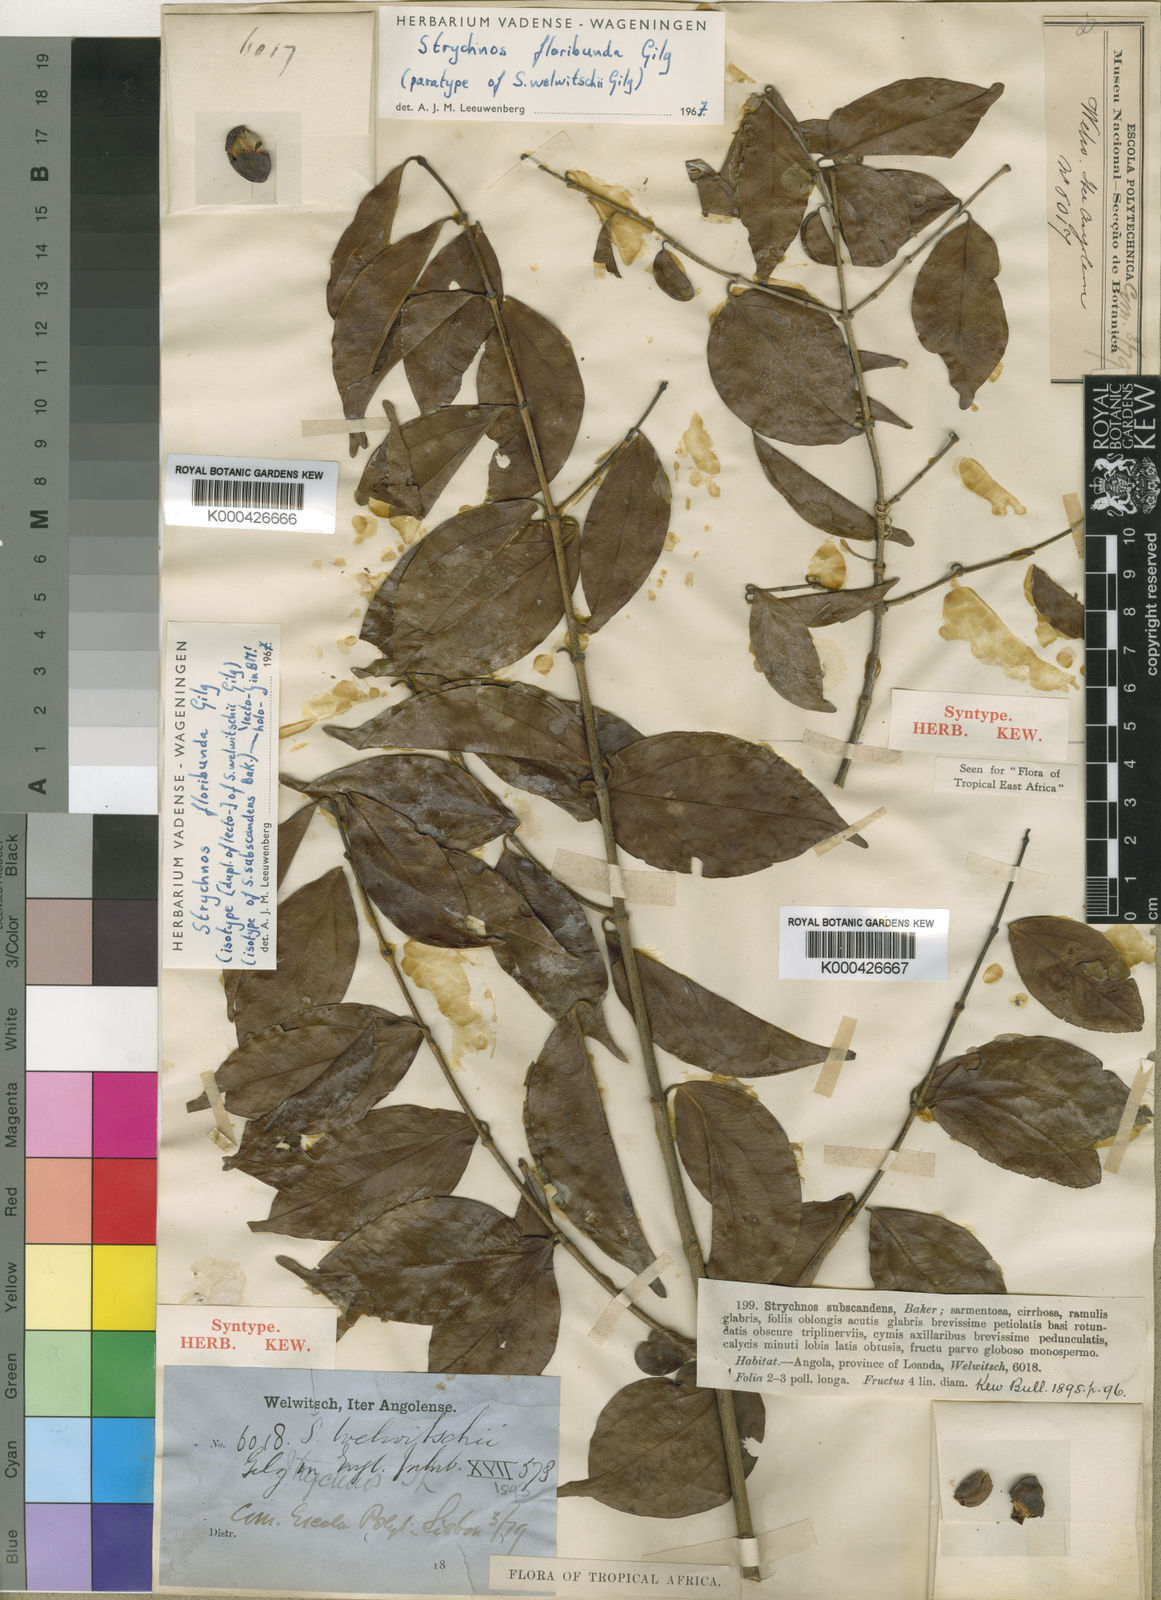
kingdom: Plantae
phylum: Tracheophyta
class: Magnoliopsida
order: Gentianales
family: Loganiaceae
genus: Strychnos
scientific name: Strychnos floribunda
